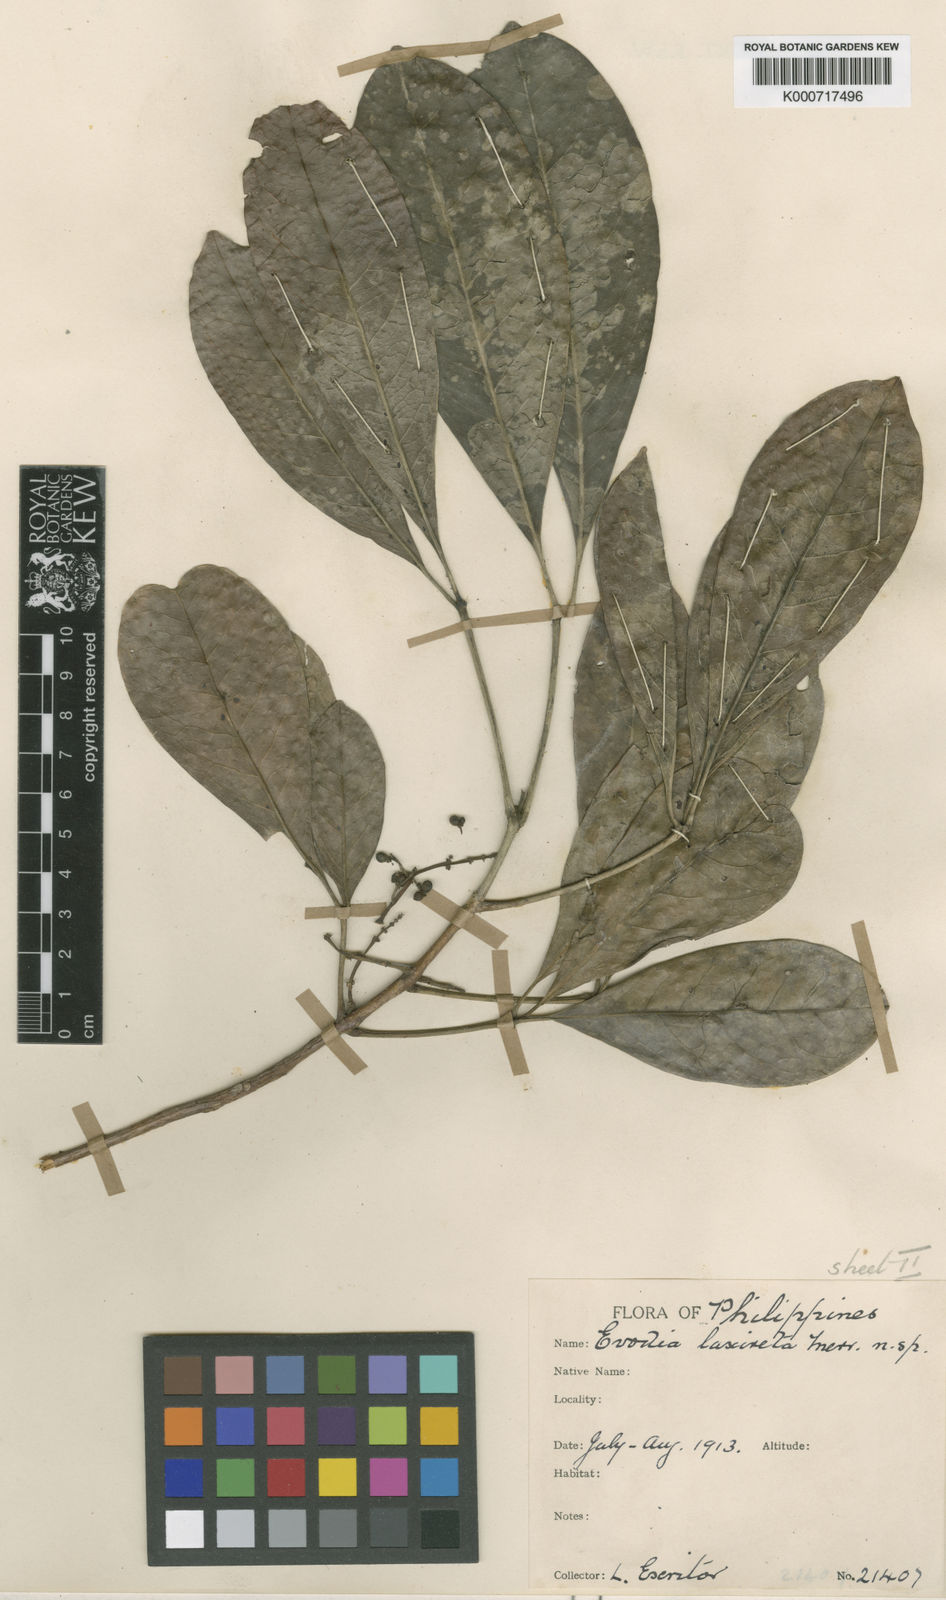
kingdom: Plantae
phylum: Tracheophyta
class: Magnoliopsida
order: Sapindales
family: Rutaceae
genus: Melicope
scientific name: Melicope triphylla
